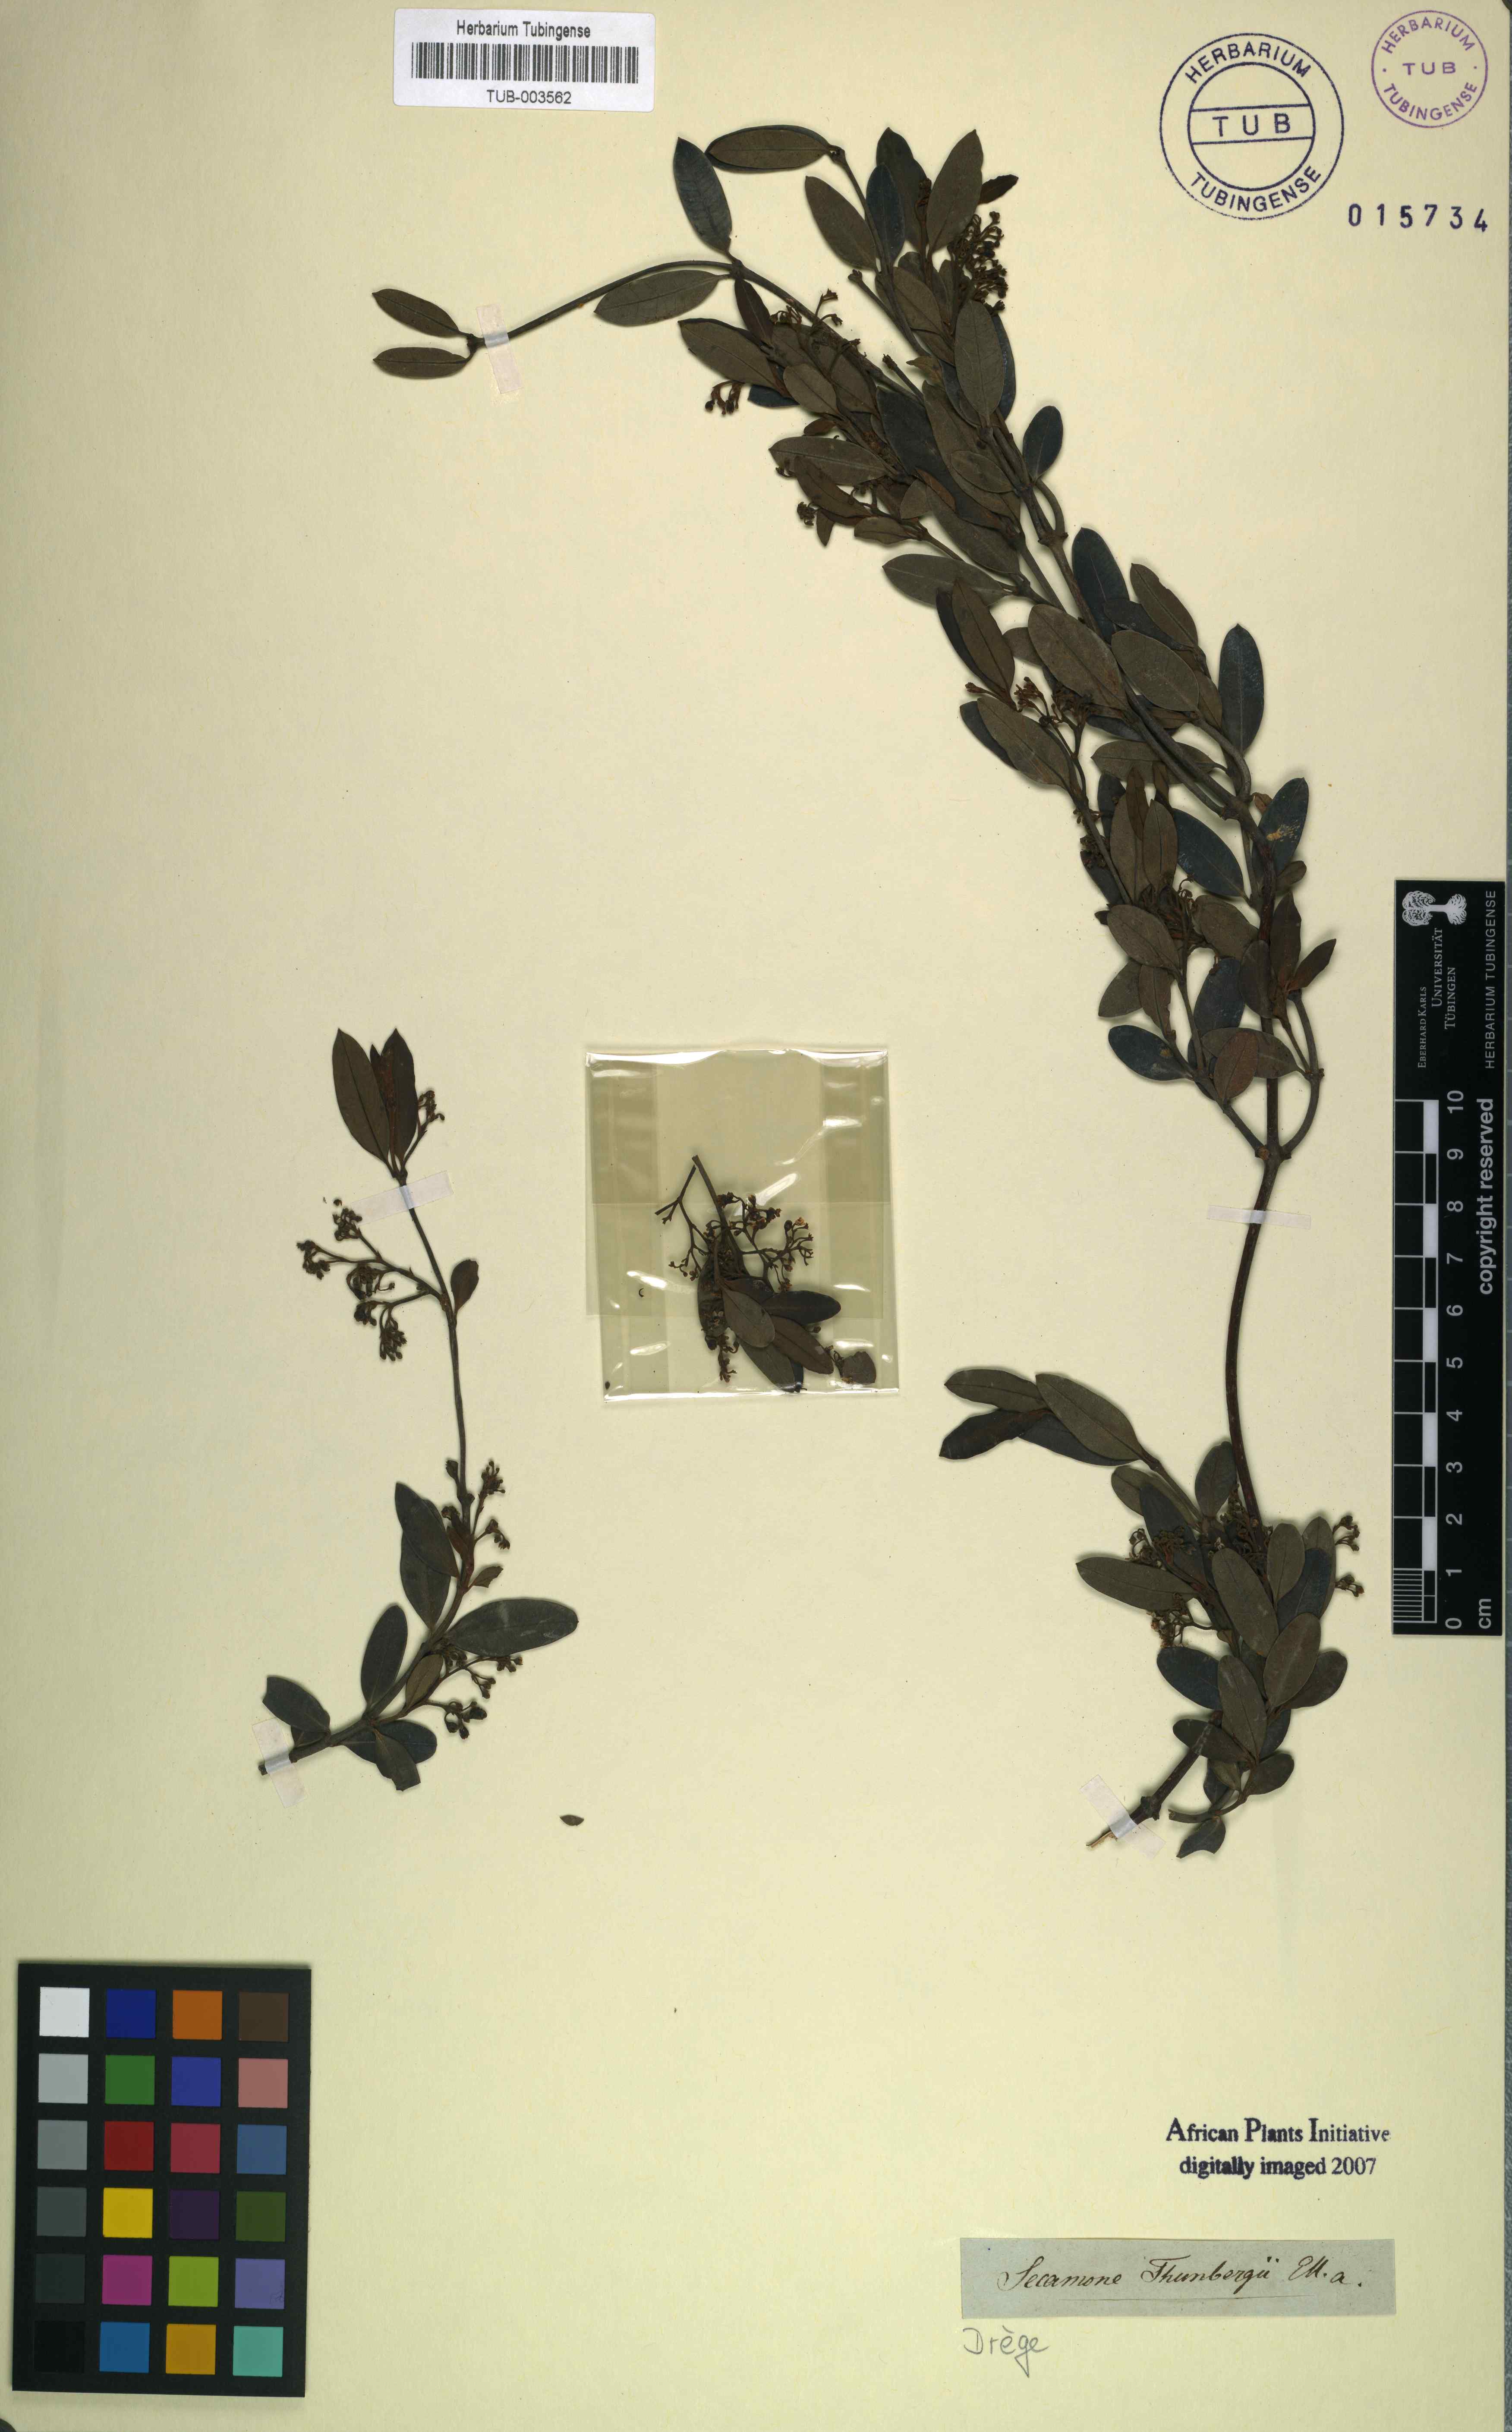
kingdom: Plantae
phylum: Tracheophyta
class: Magnoliopsida
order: Gentianales
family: Apocynaceae
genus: Secamone
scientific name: Secamone alpini
